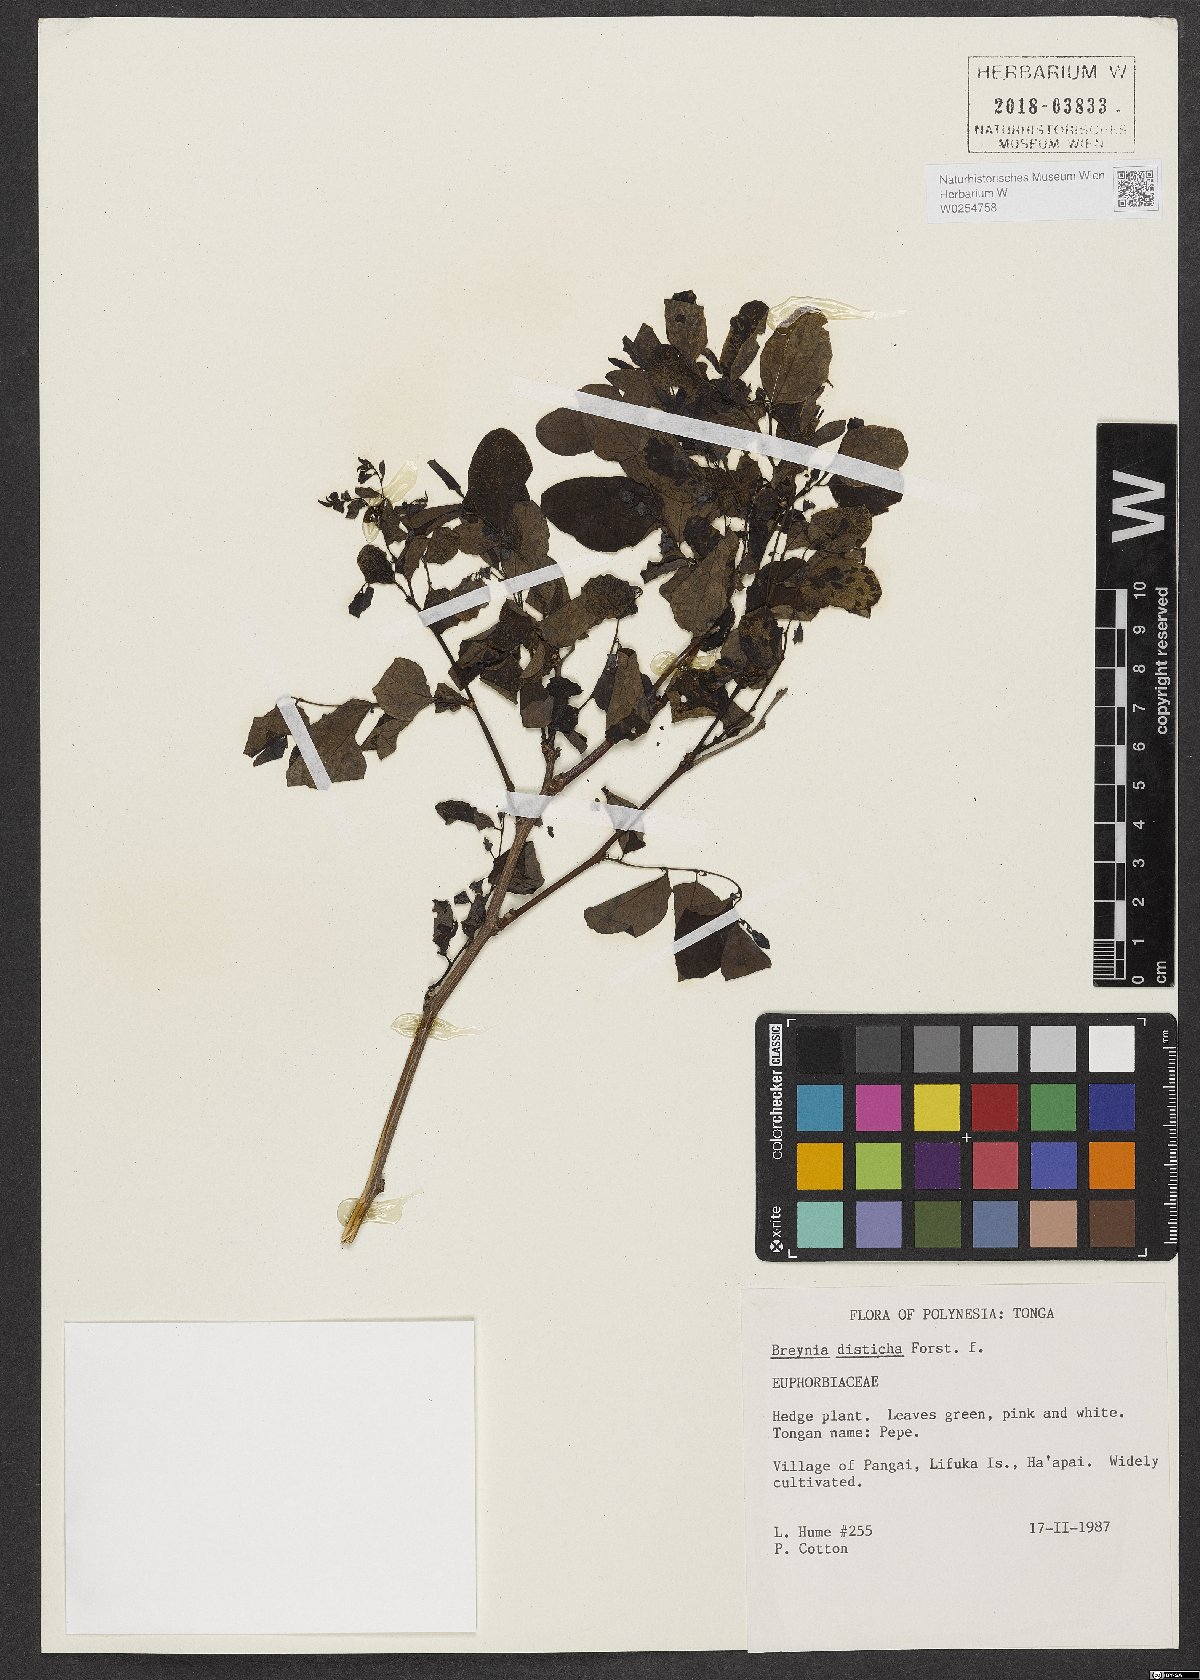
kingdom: Plantae
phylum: Tracheophyta
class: Magnoliopsida
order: Malpighiales
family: Phyllanthaceae
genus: Breynia
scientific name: Breynia disticha
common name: Snowbush
